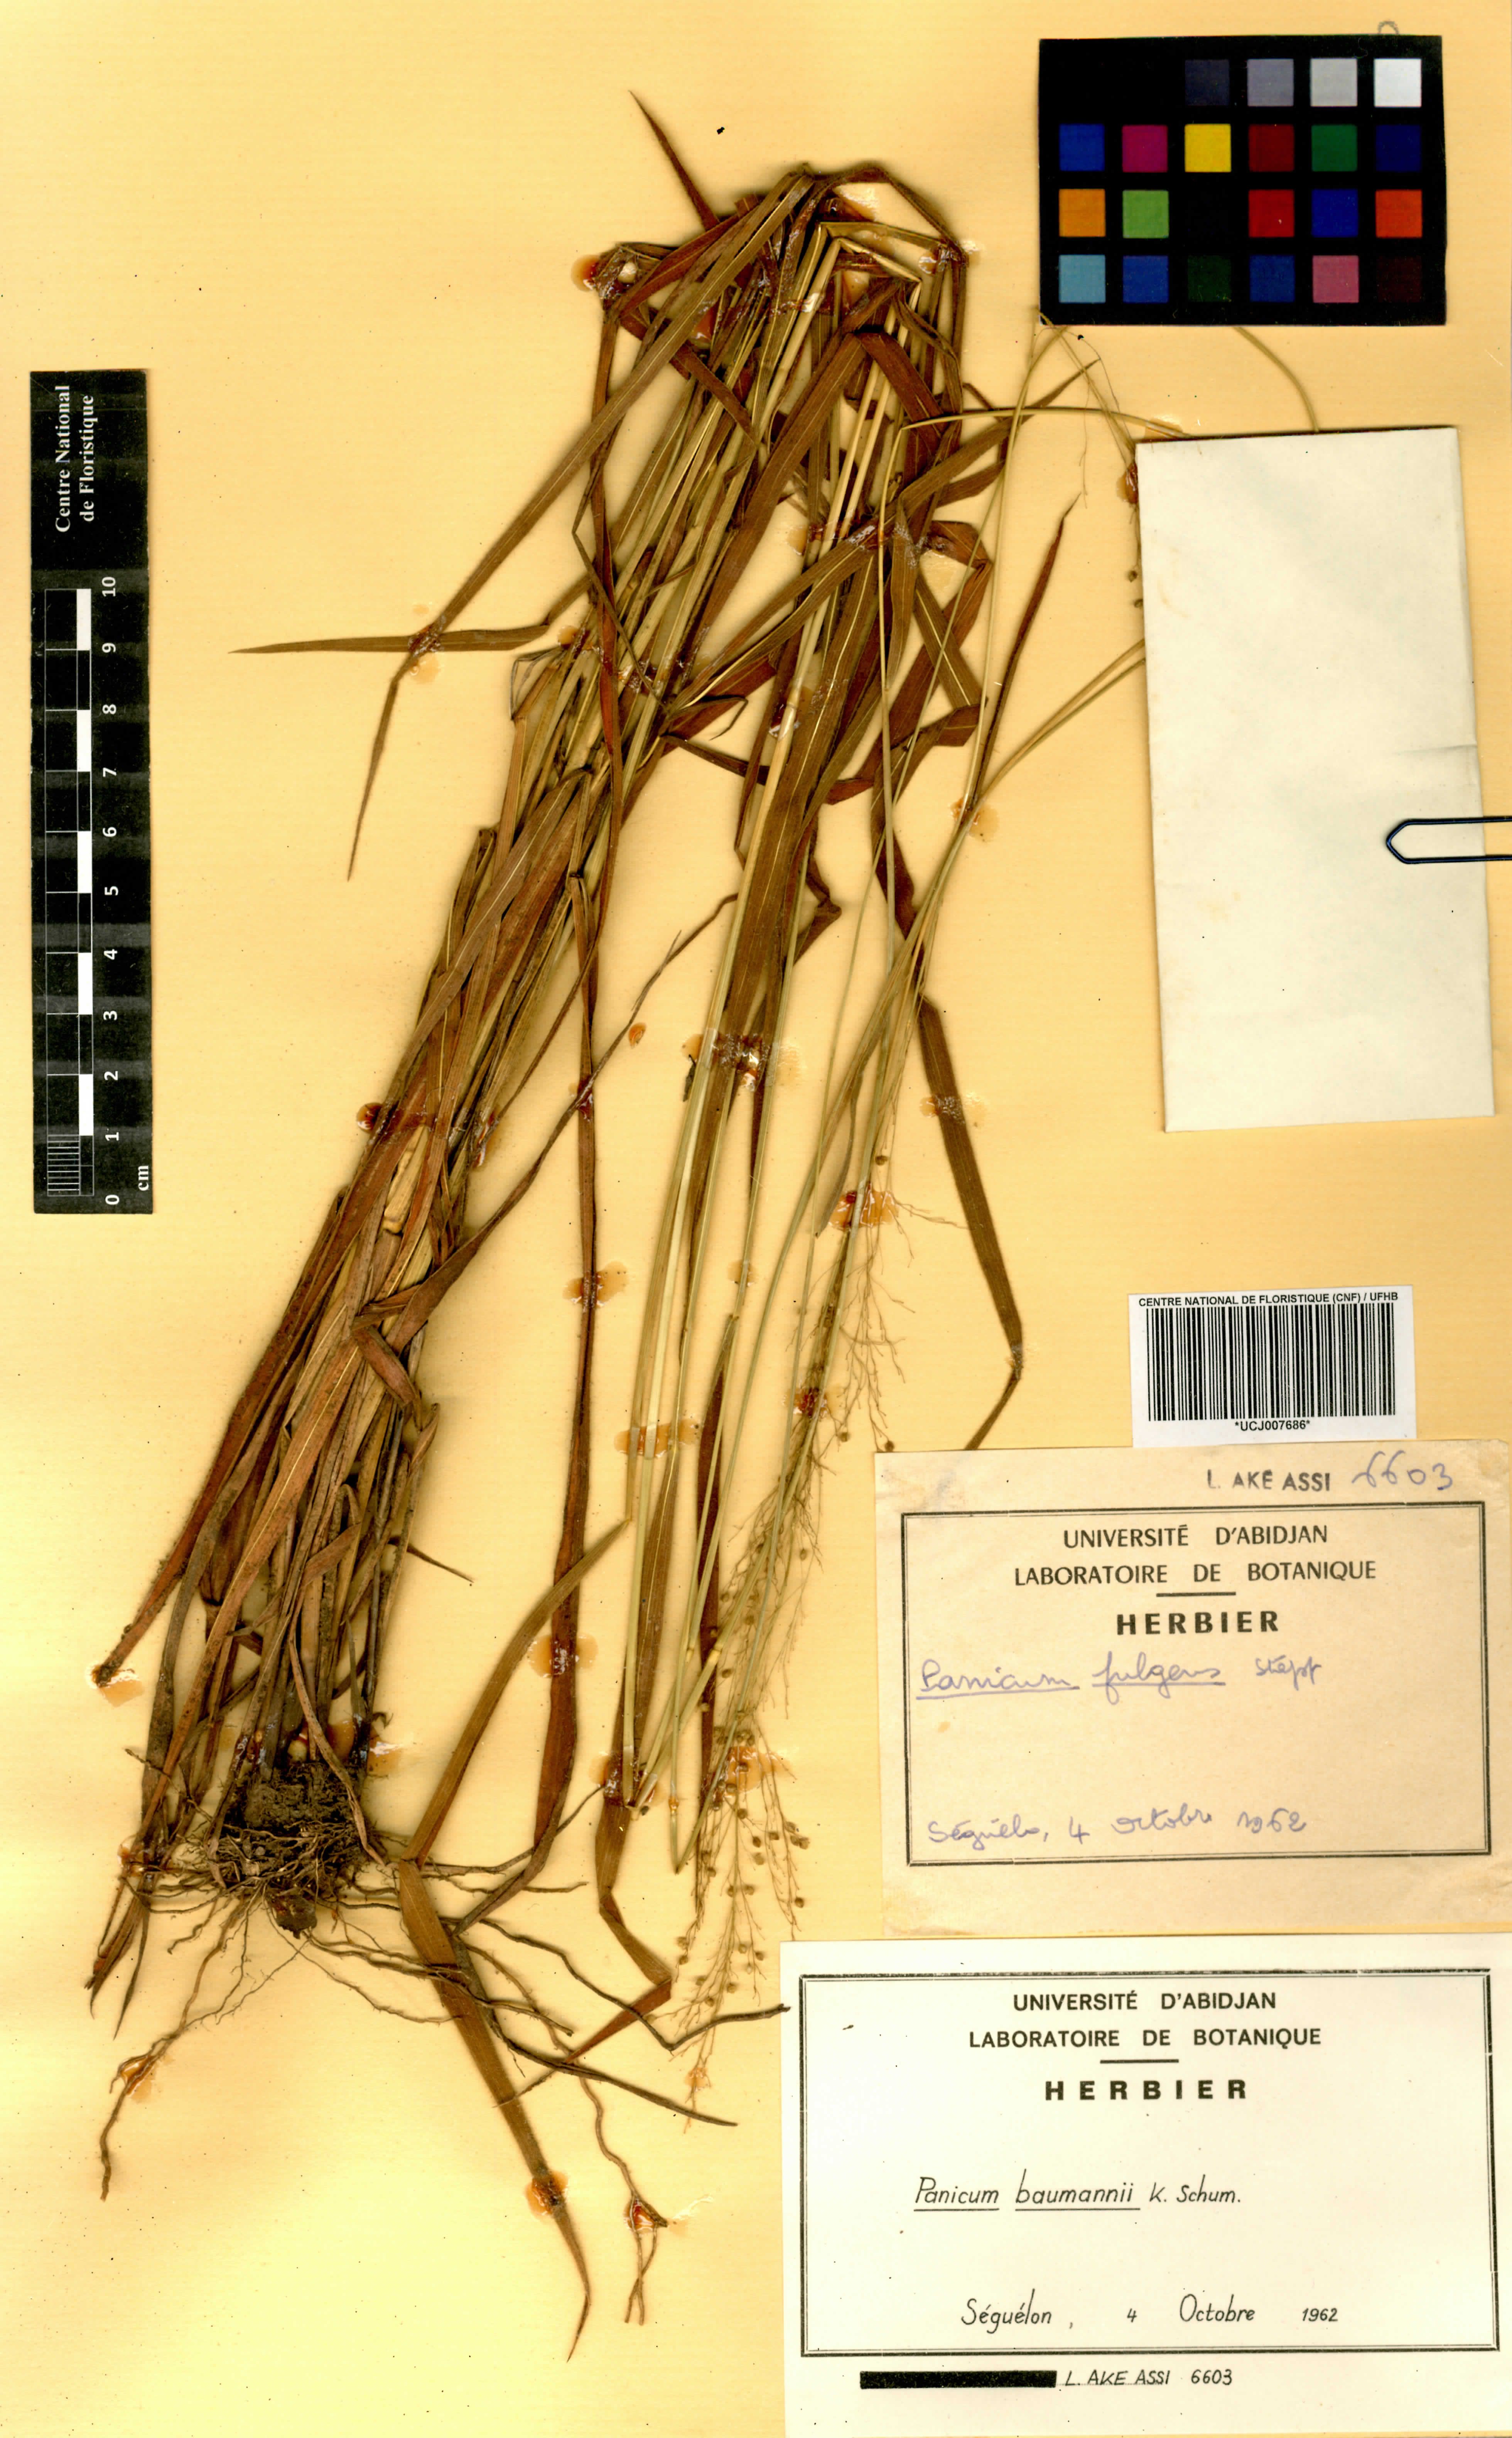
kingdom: Plantae
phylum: Tracheophyta
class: Liliopsida
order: Poales
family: Poaceae
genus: Trichanthecium
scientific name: Trichanthecium nervatum
